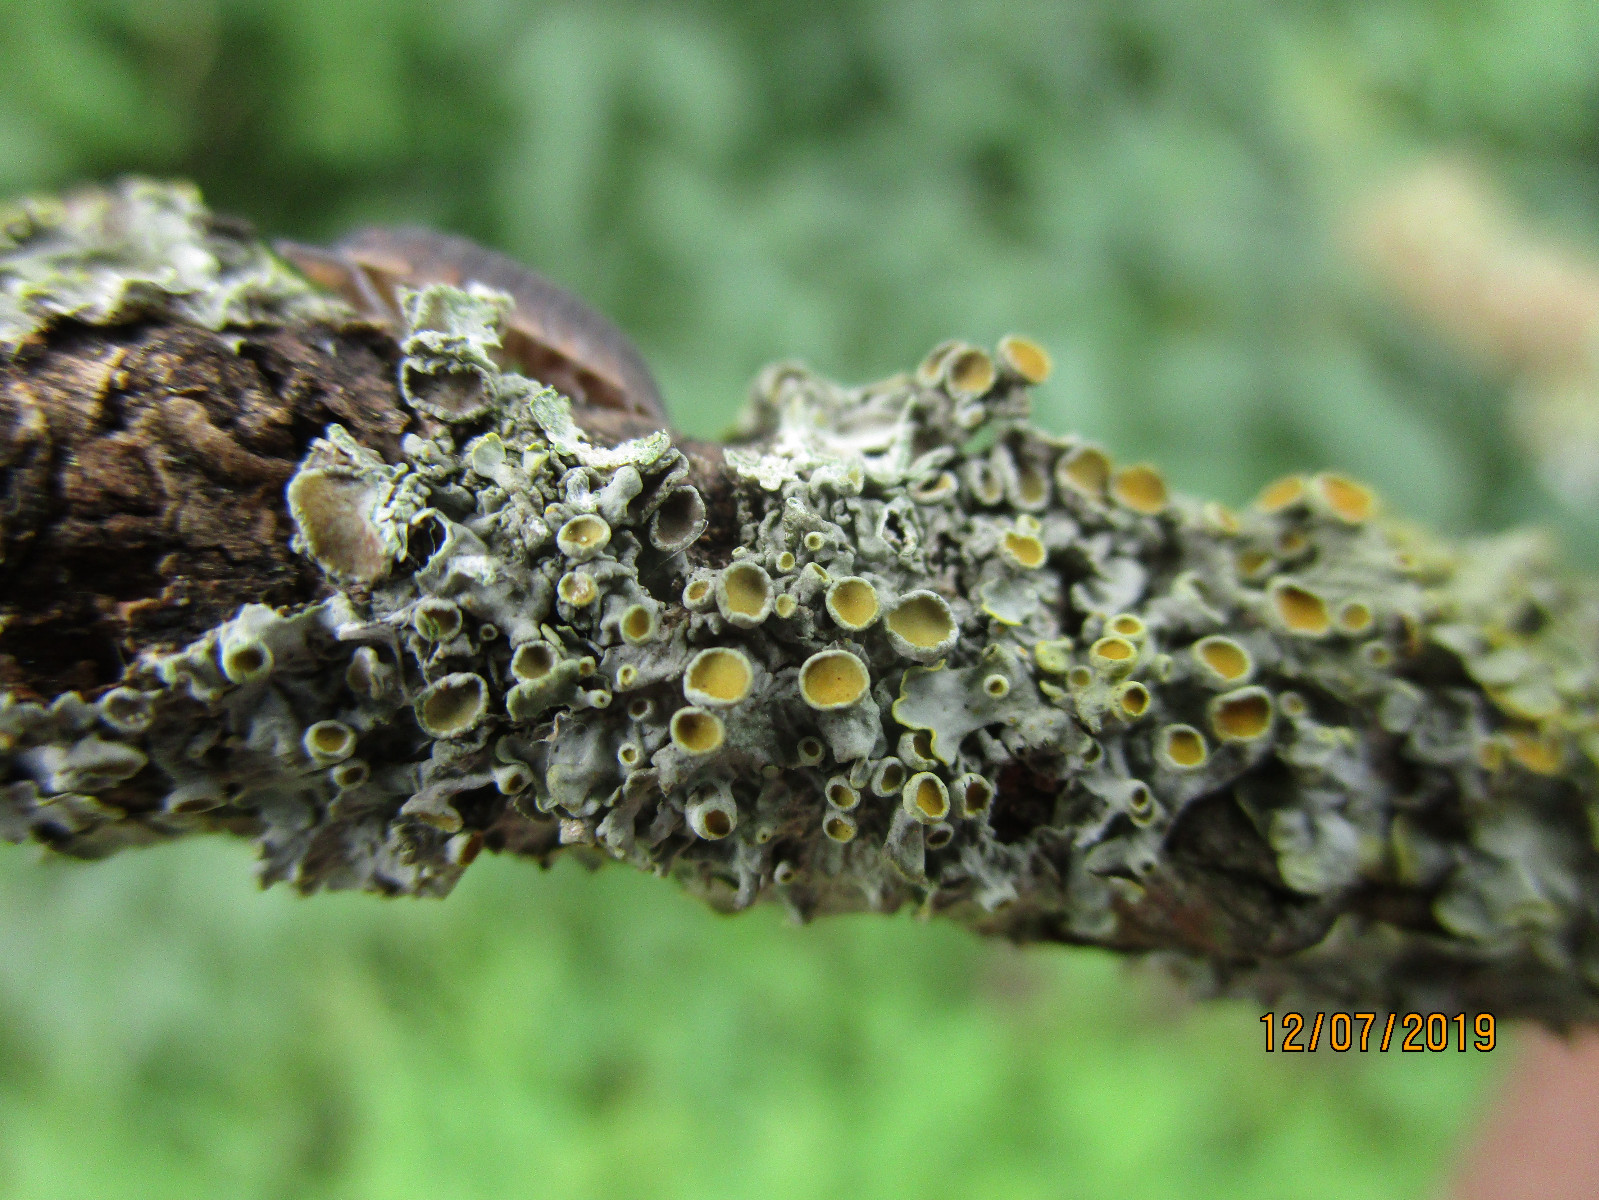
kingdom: Fungi
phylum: Ascomycota
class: Lecanoromycetes
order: Teloschistales
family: Teloschistaceae
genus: Xanthoria
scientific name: Xanthoria parietina
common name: almindelig væggelav
